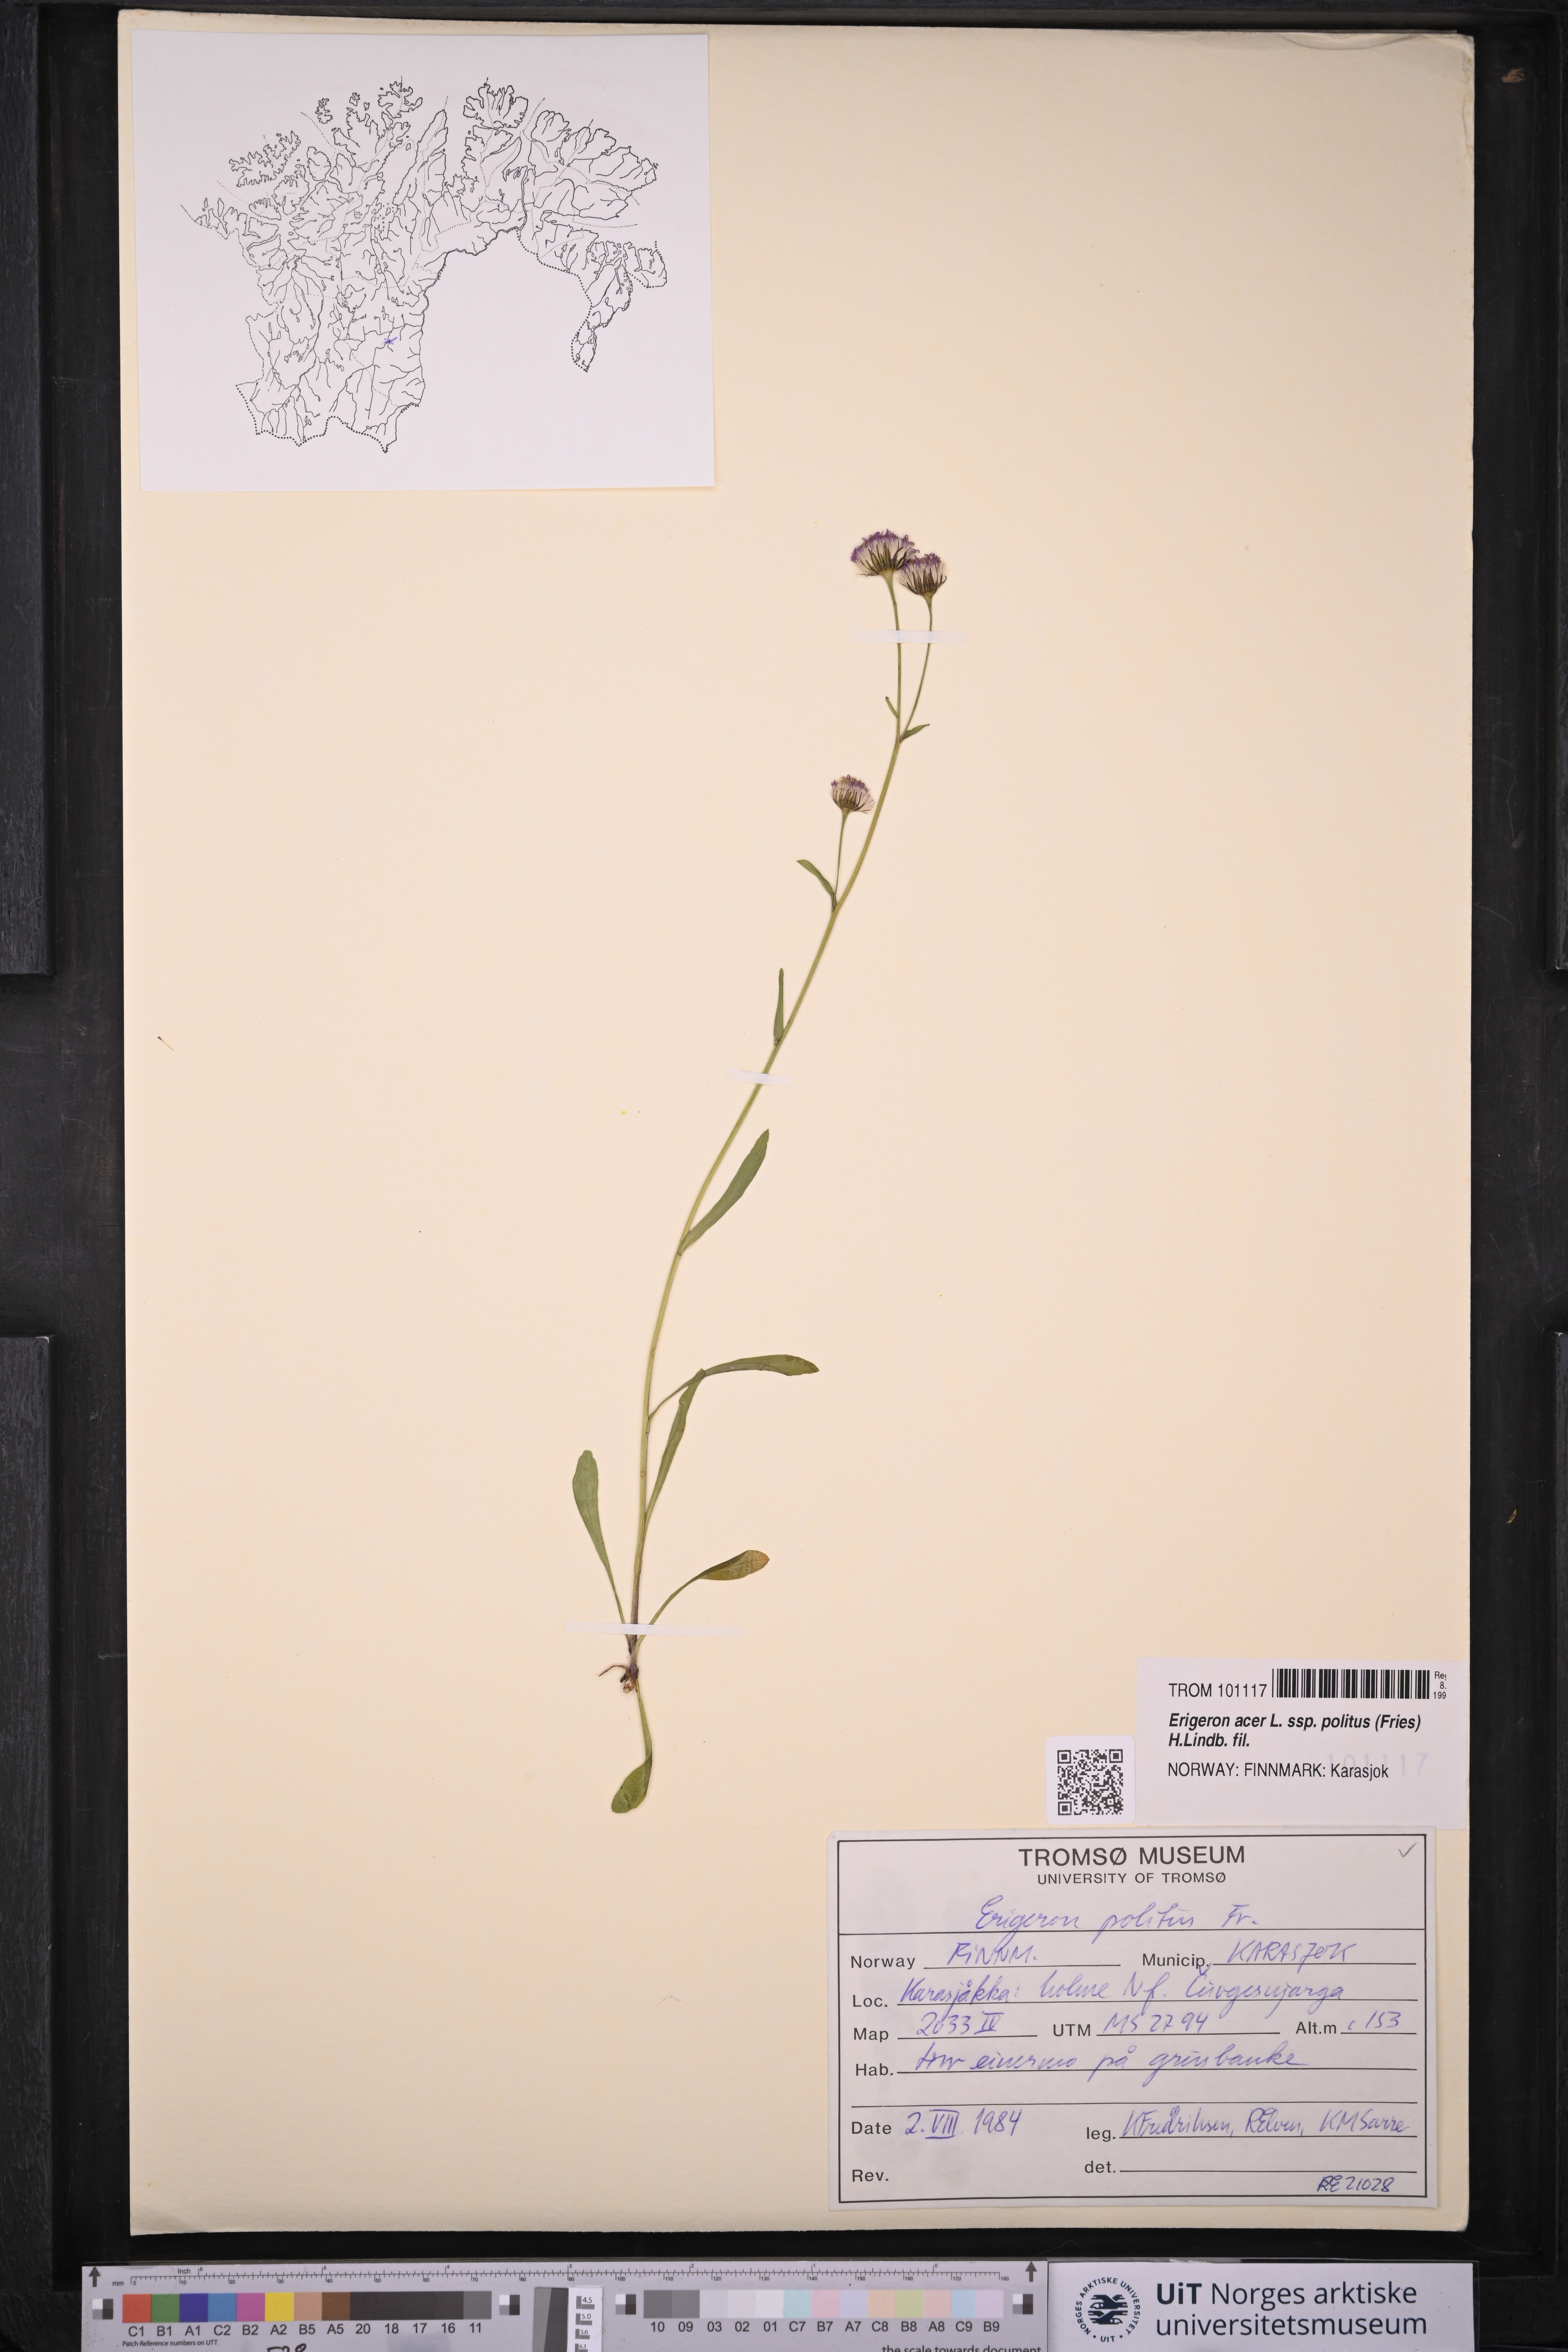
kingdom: Plantae
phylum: Tracheophyta
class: Magnoliopsida
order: Asterales
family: Asteraceae
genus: Erigeron
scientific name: Erigeron politus
